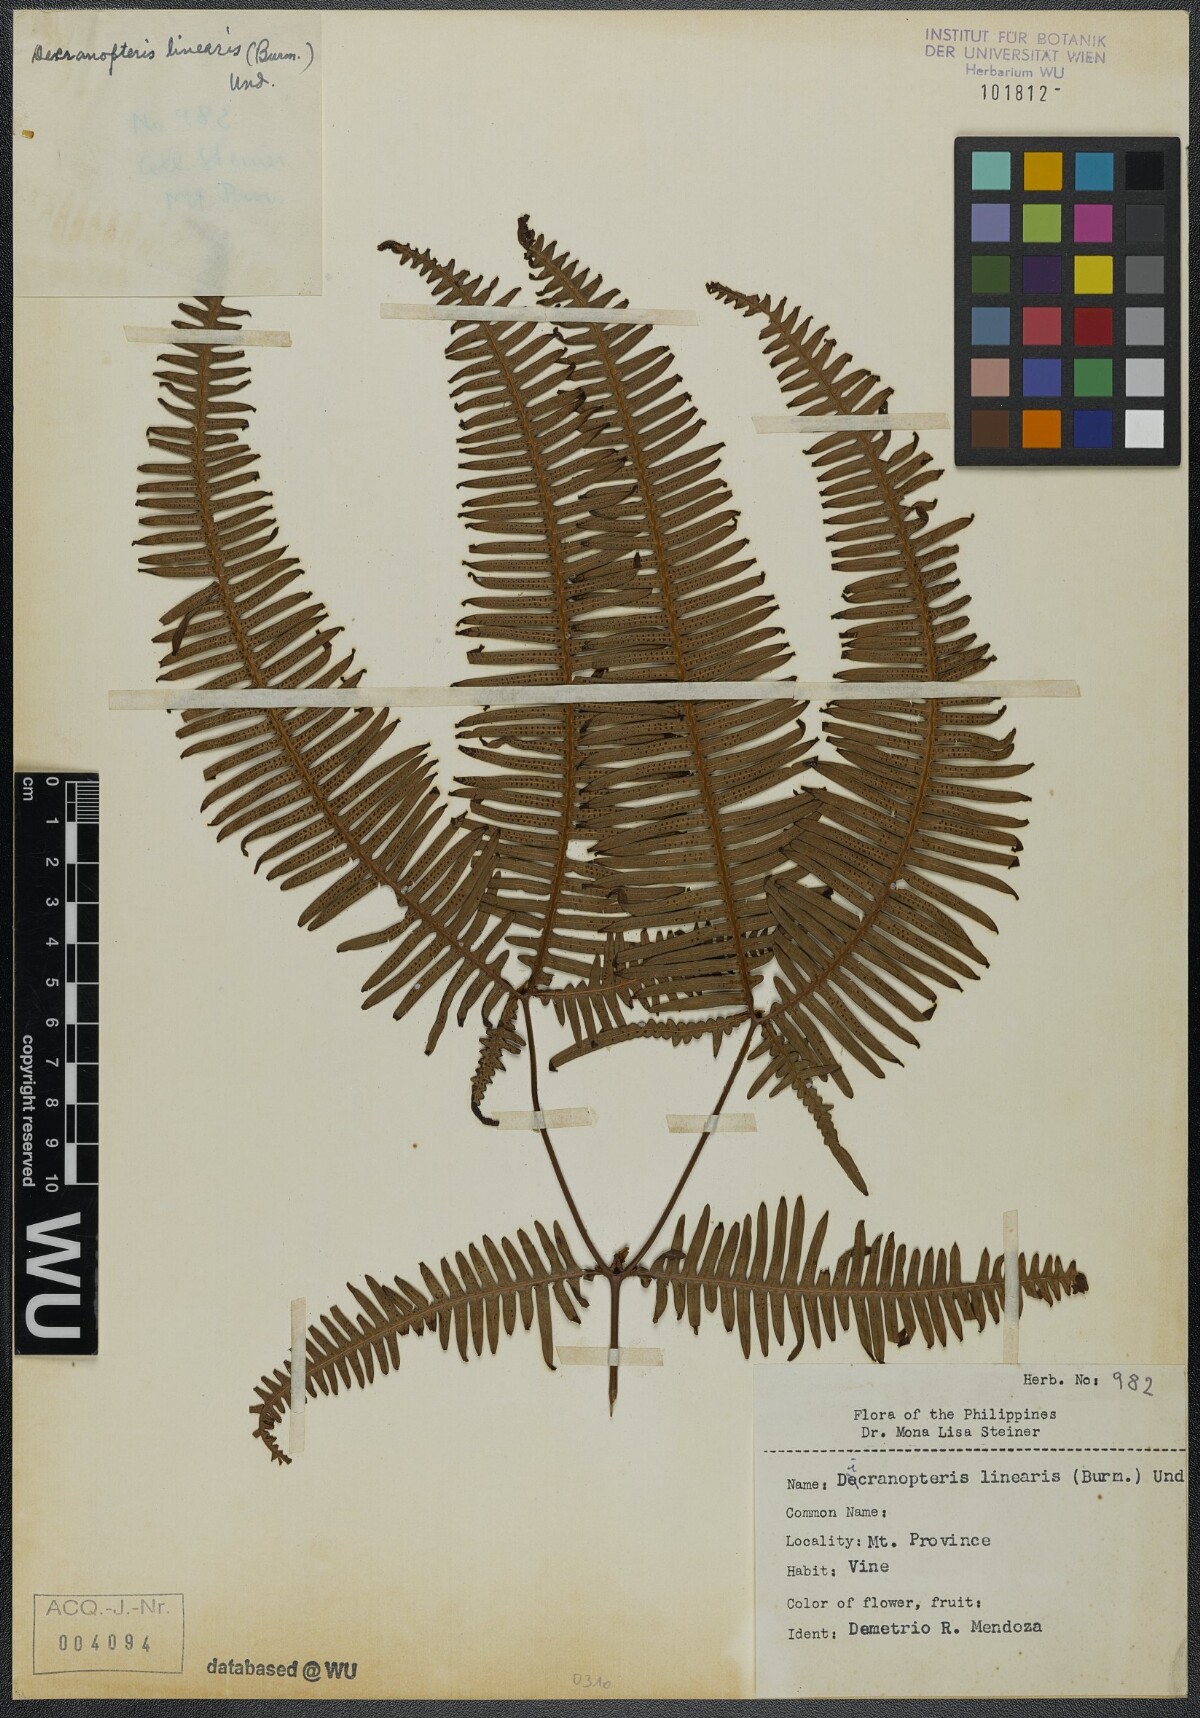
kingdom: Plantae
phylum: Tracheophyta
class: Polypodiopsida
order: Gleicheniales
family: Gleicheniaceae
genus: Dicranopteris
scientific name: Dicranopteris linearis
